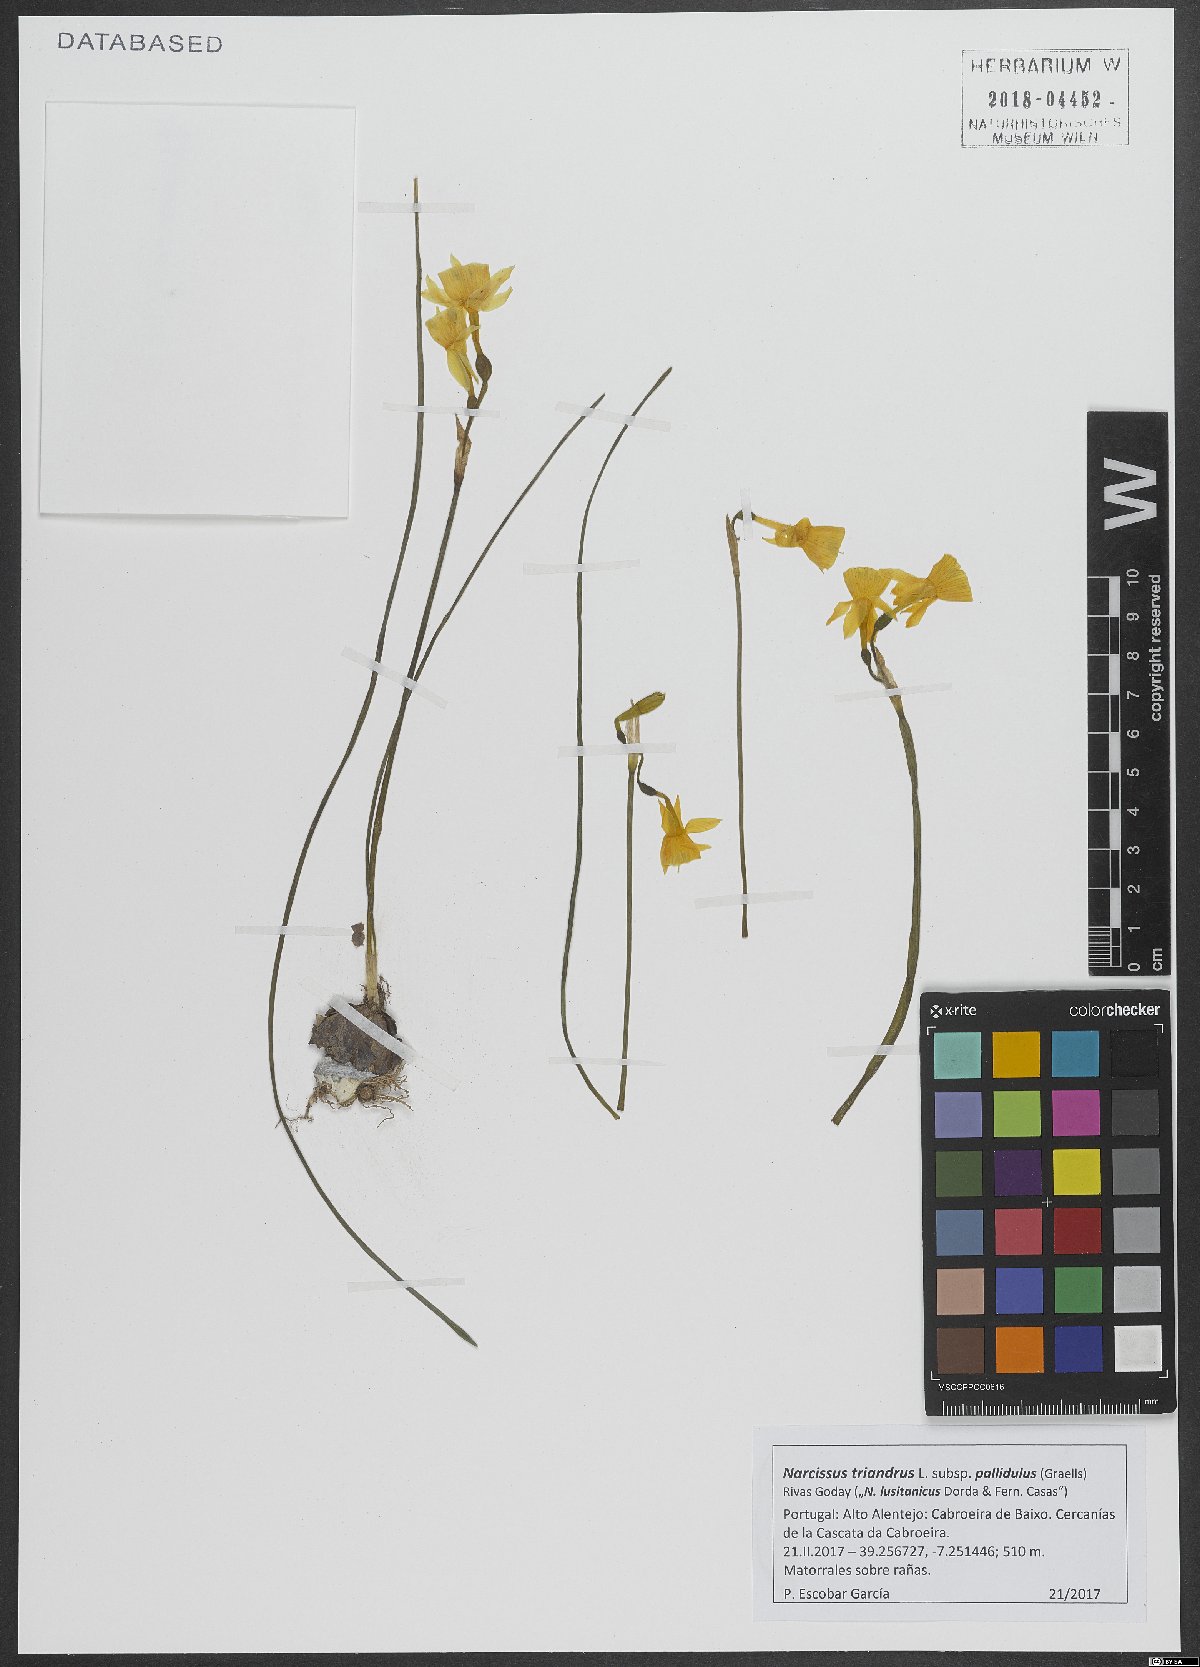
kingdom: Plantae
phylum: Tracheophyta
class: Liliopsida
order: Asparagales
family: Amaryllidaceae
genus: Narcissus
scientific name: Narcissus triandrus
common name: Angel's-tears
